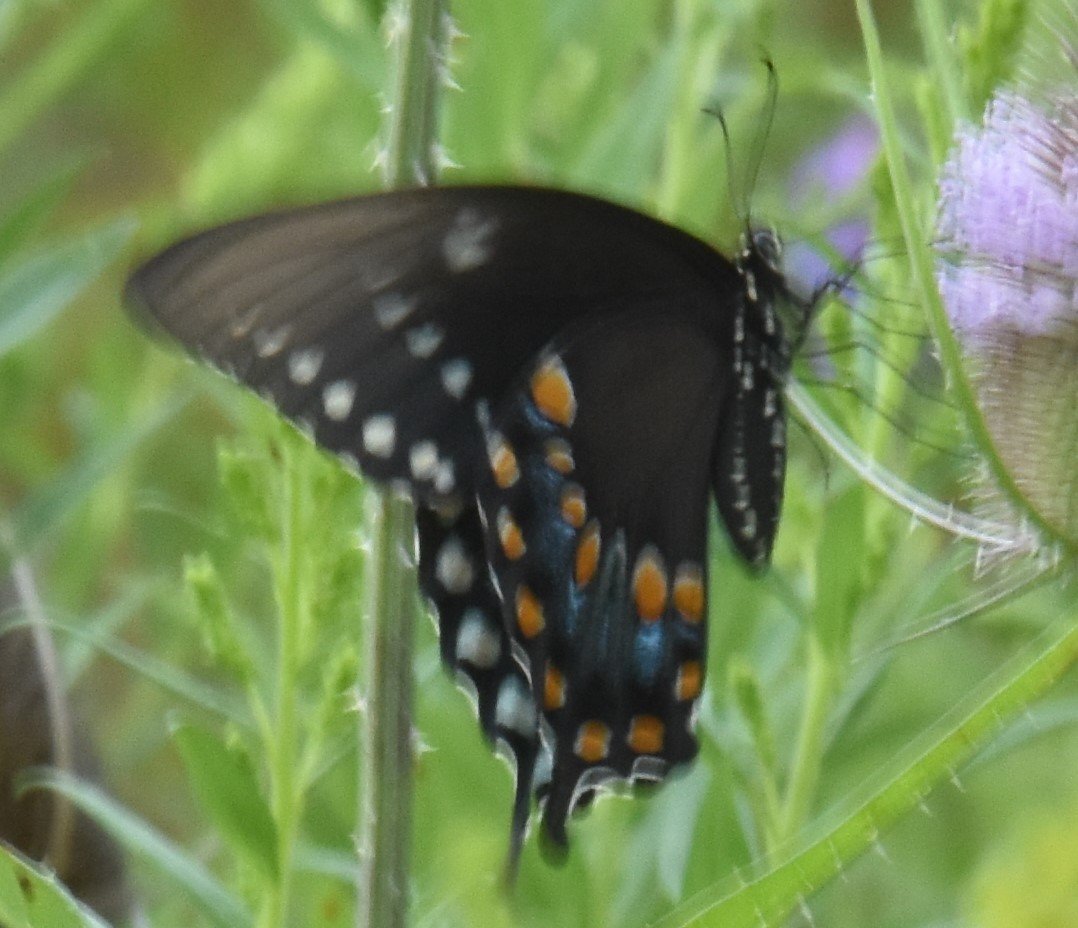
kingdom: Animalia
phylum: Arthropoda
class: Insecta
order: Lepidoptera
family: Papilionidae
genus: Pterourus
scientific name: Pterourus troilus
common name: Spicebush Swallowtail
